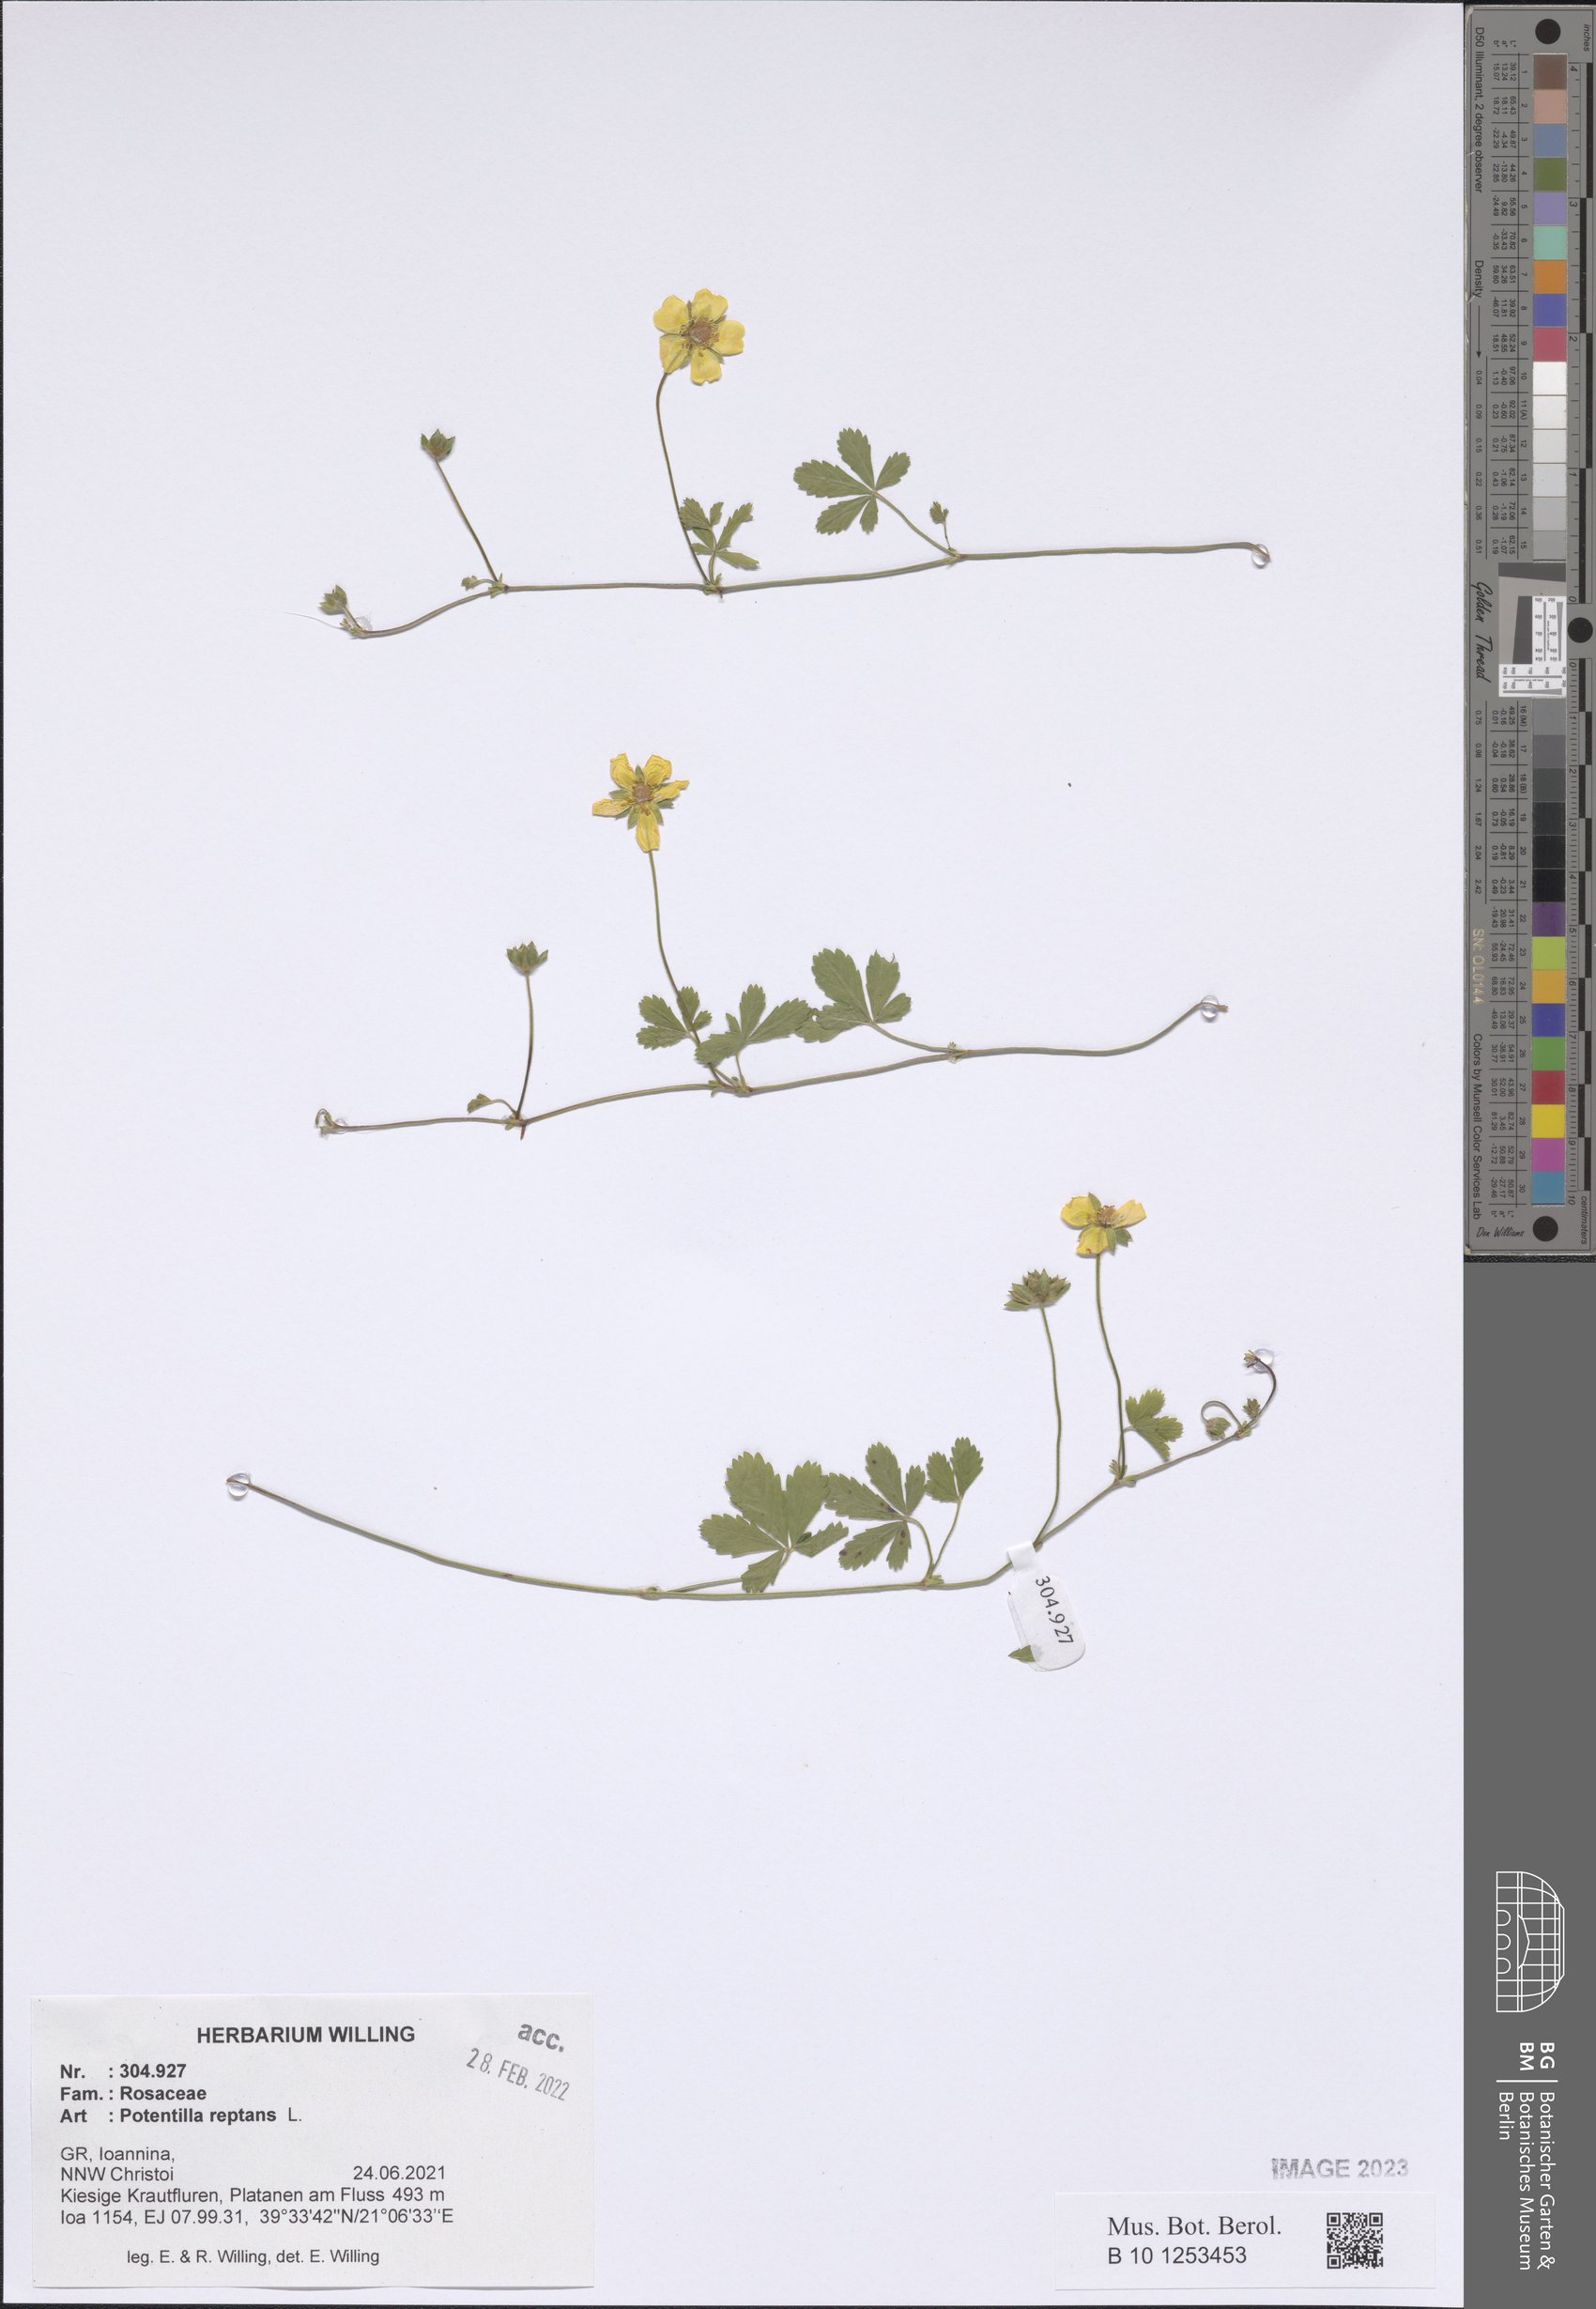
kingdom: Plantae
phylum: Tracheophyta
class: Magnoliopsida
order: Rosales
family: Rosaceae
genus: Potentilla
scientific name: Potentilla reptans
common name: Creeping cinquefoil
